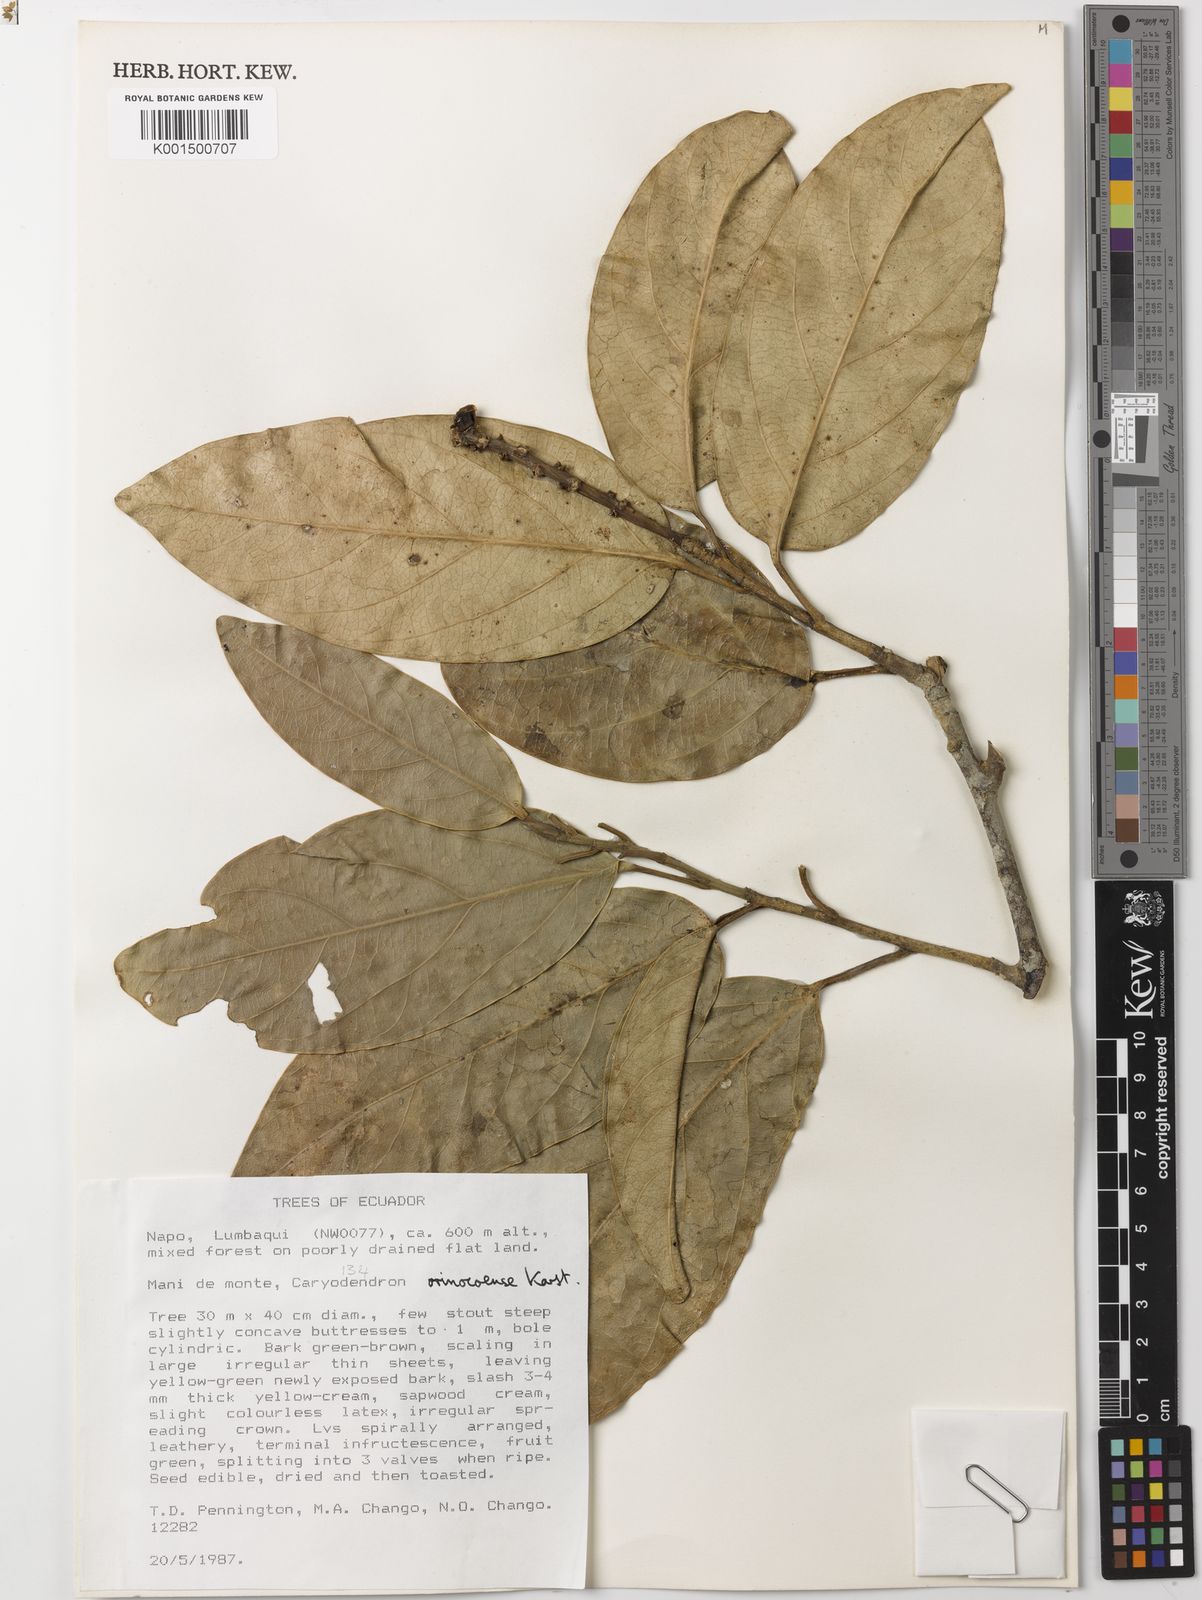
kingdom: Plantae
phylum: Tracheophyta
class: Magnoliopsida
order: Malpighiales
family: Euphorbiaceae
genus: Caryodendron
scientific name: Caryodendron orinocense
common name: Tacaynut
